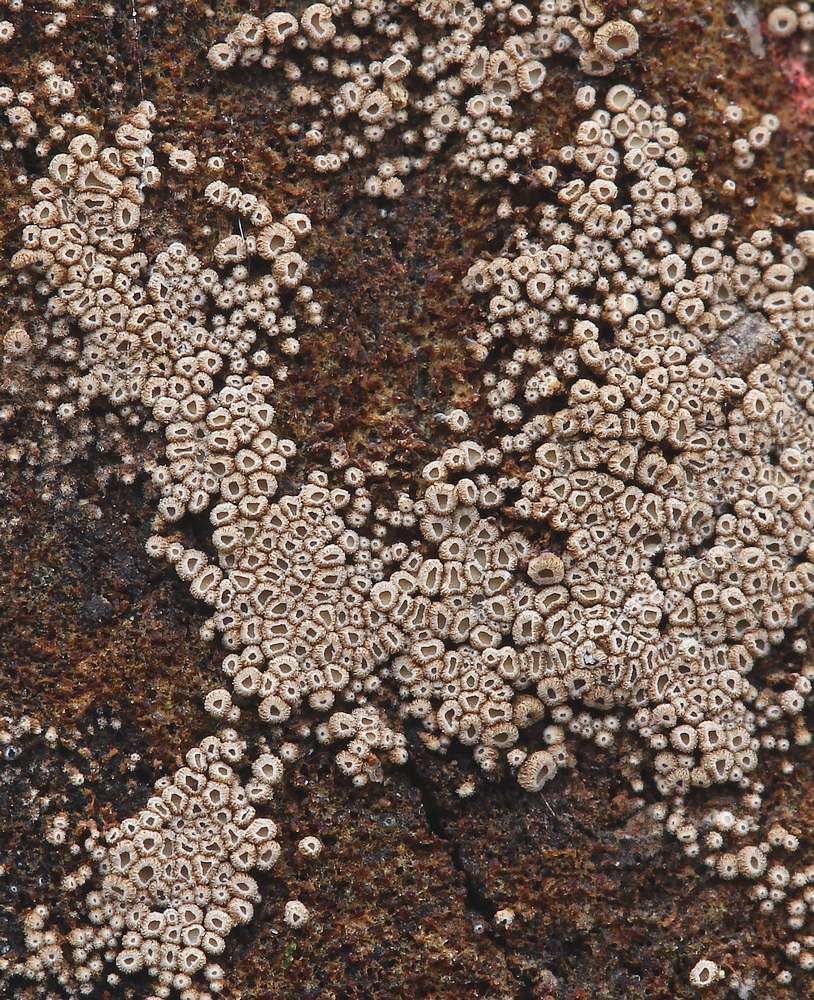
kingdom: Fungi
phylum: Basidiomycota
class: Agaricomycetes
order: Agaricales
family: Niaceae
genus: Merismodes
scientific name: Merismodes anomala
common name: almindelig læderskål
